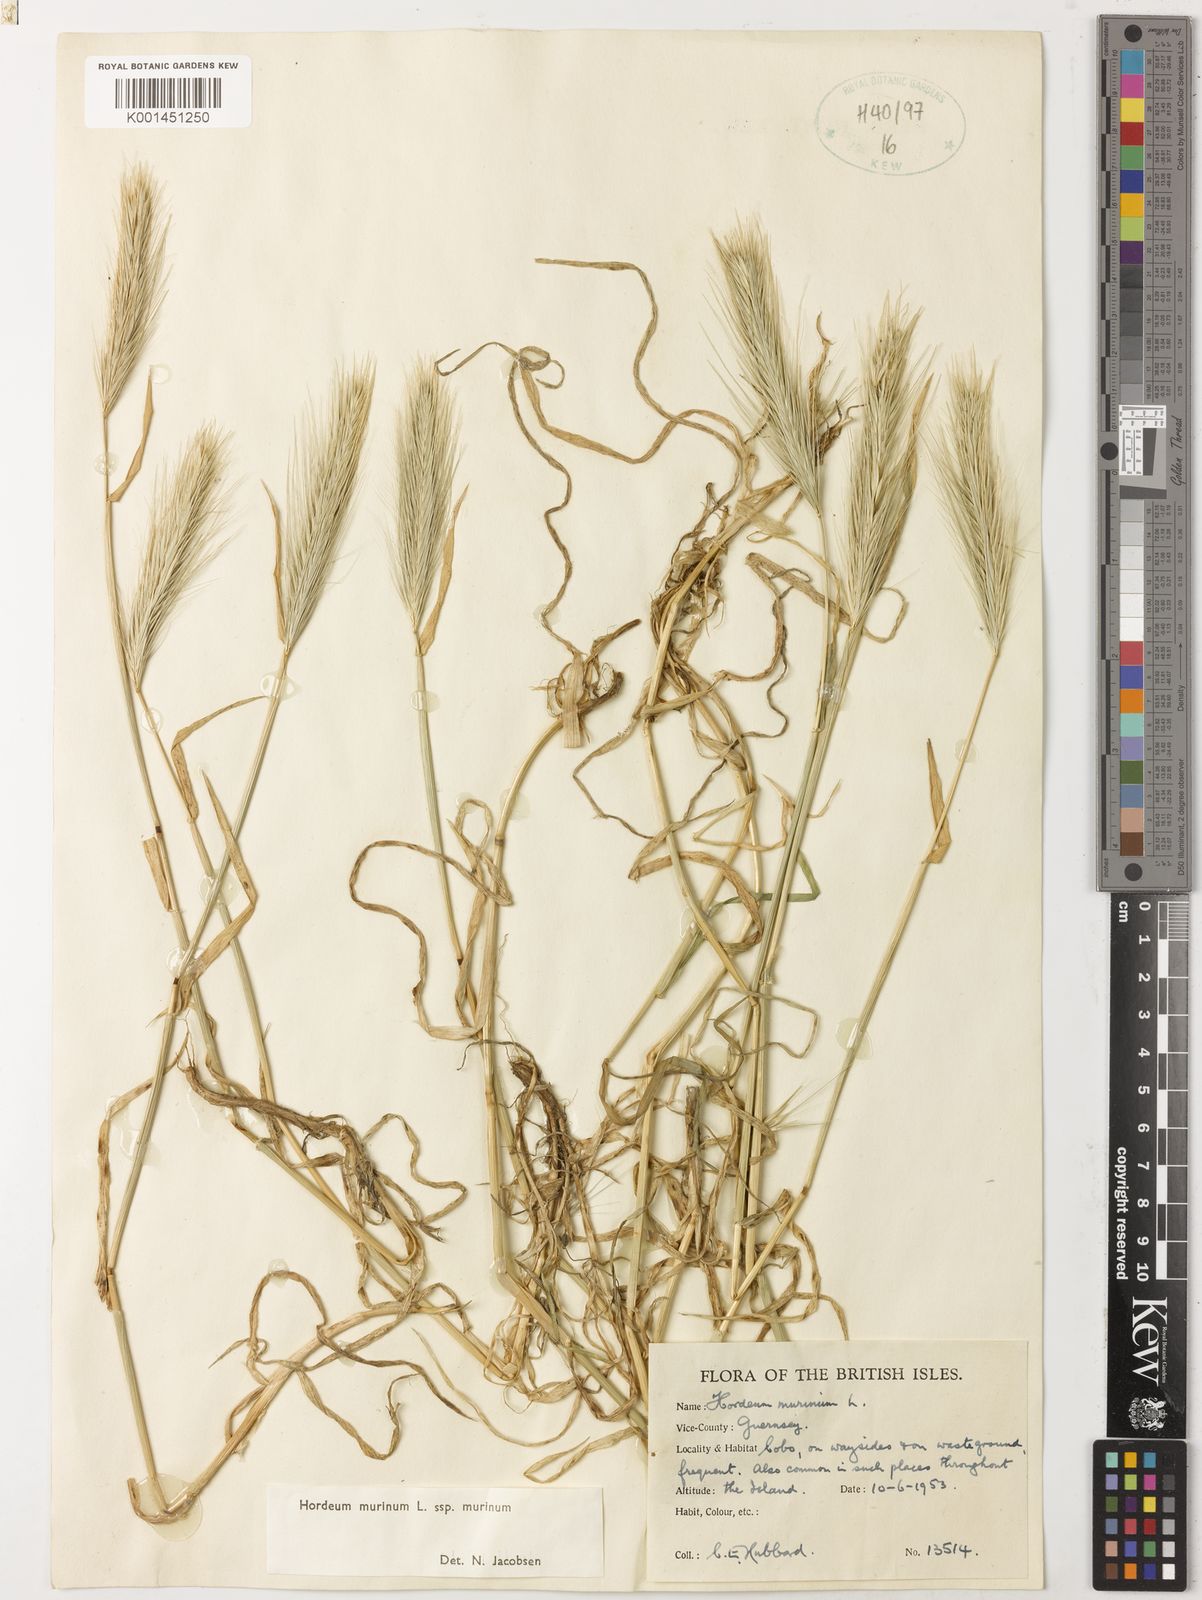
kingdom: Plantae
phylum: Tracheophyta
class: Liliopsida
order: Poales
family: Poaceae
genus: Hordeum
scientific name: Hordeum murinum
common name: Wall barley
